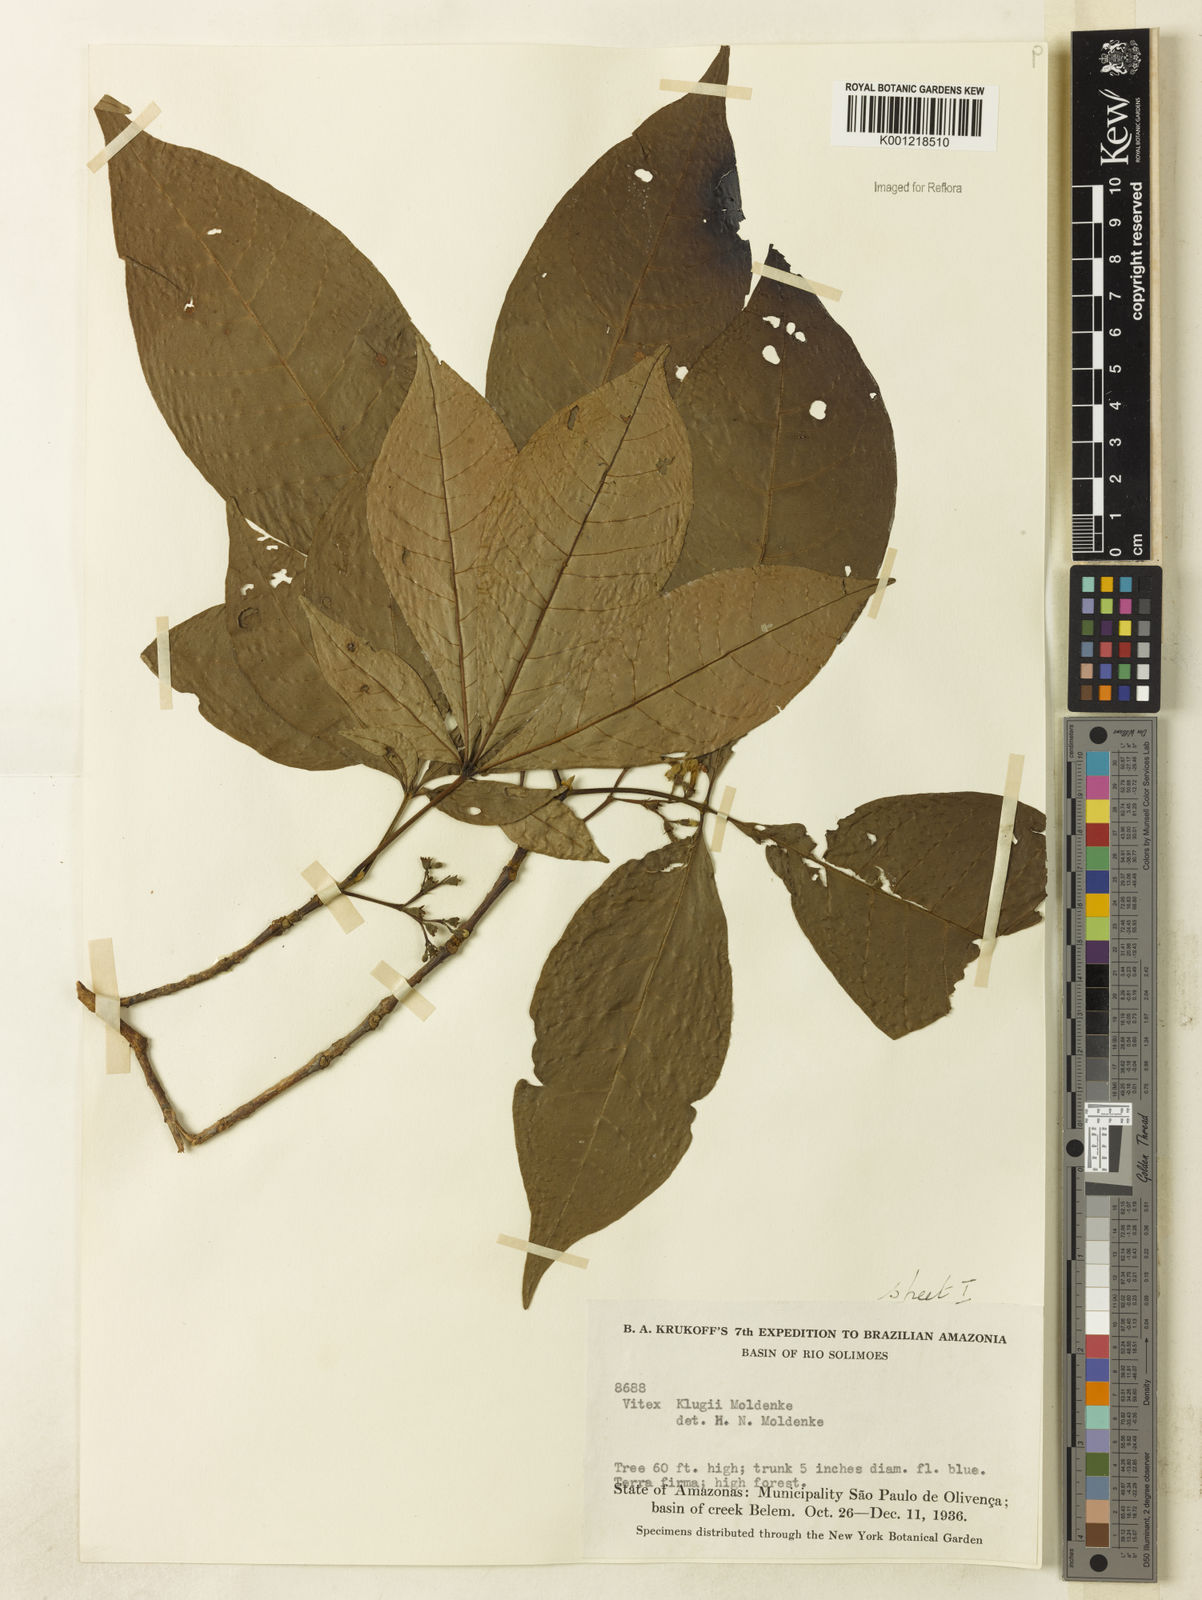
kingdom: Plantae
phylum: Tracheophyta
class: Magnoliopsida
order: Lamiales
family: Lamiaceae
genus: Vitex
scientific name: Vitex klugii
